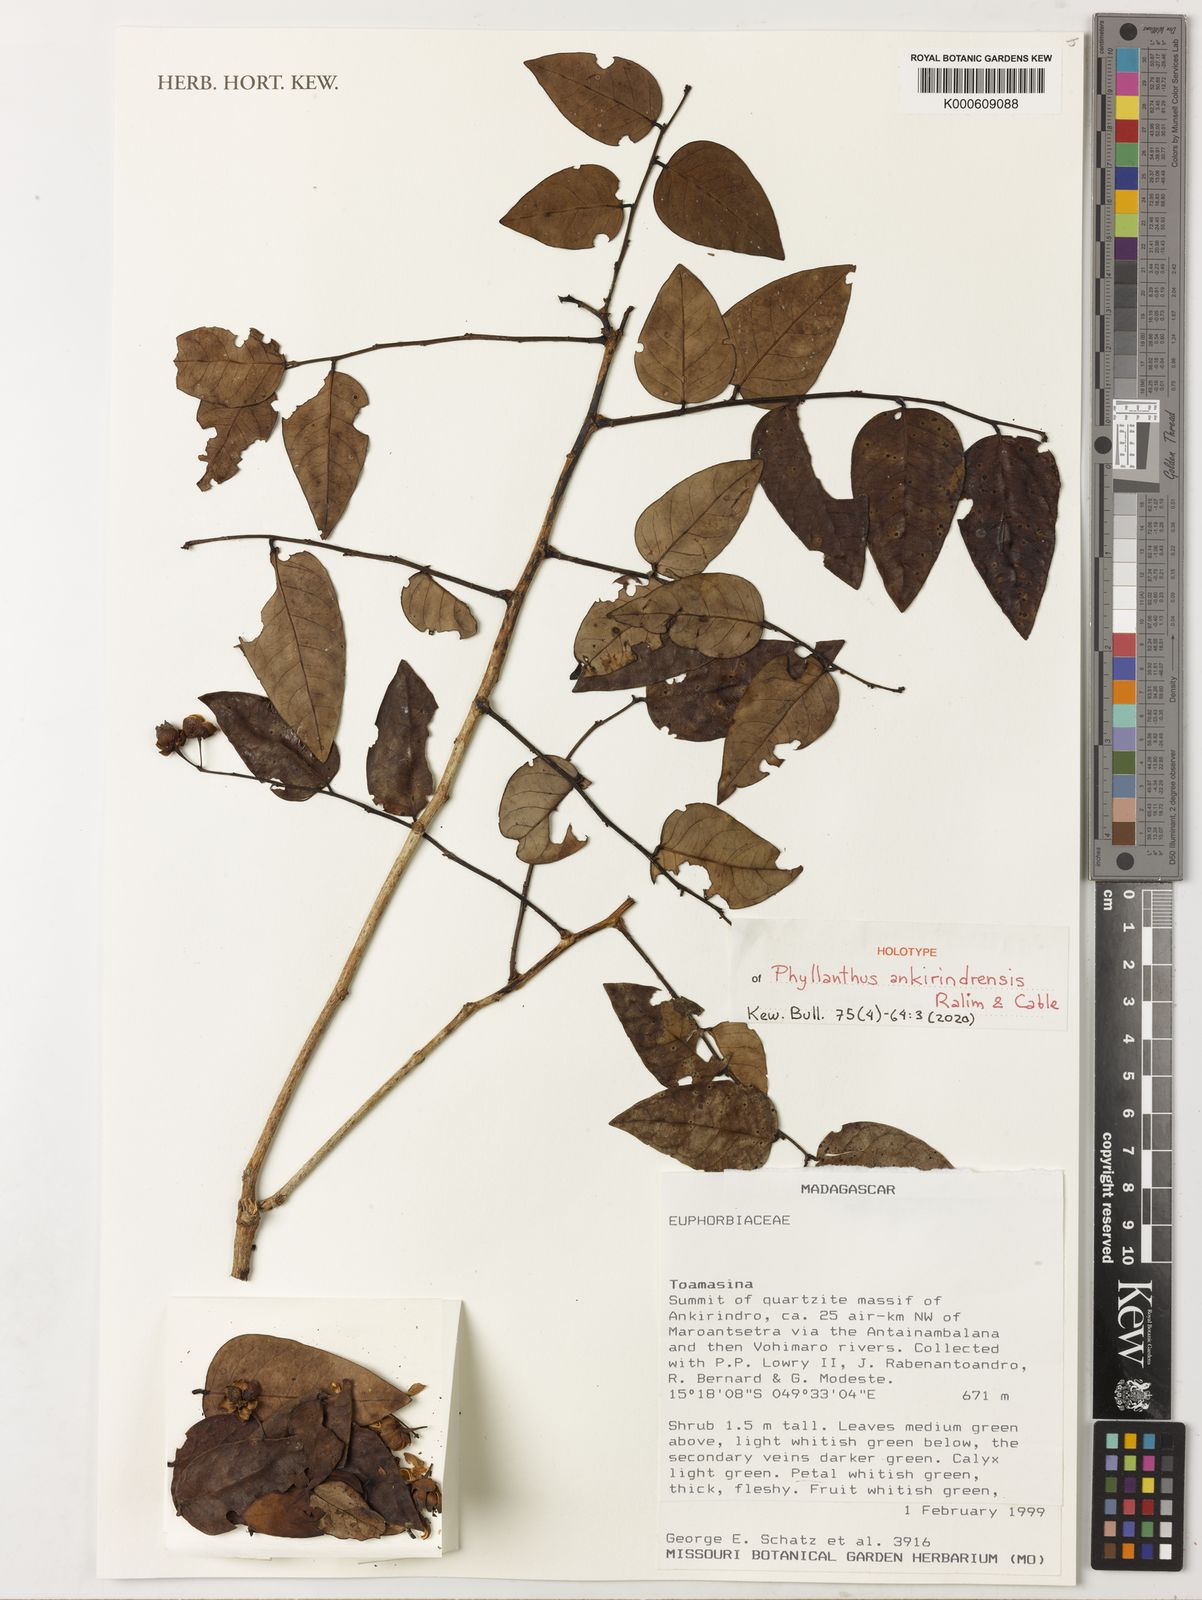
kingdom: Plantae
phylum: Tracheophyta
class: Magnoliopsida
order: Malpighiales
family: Phyllanthaceae
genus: Phyllanthus
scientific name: Phyllanthus
